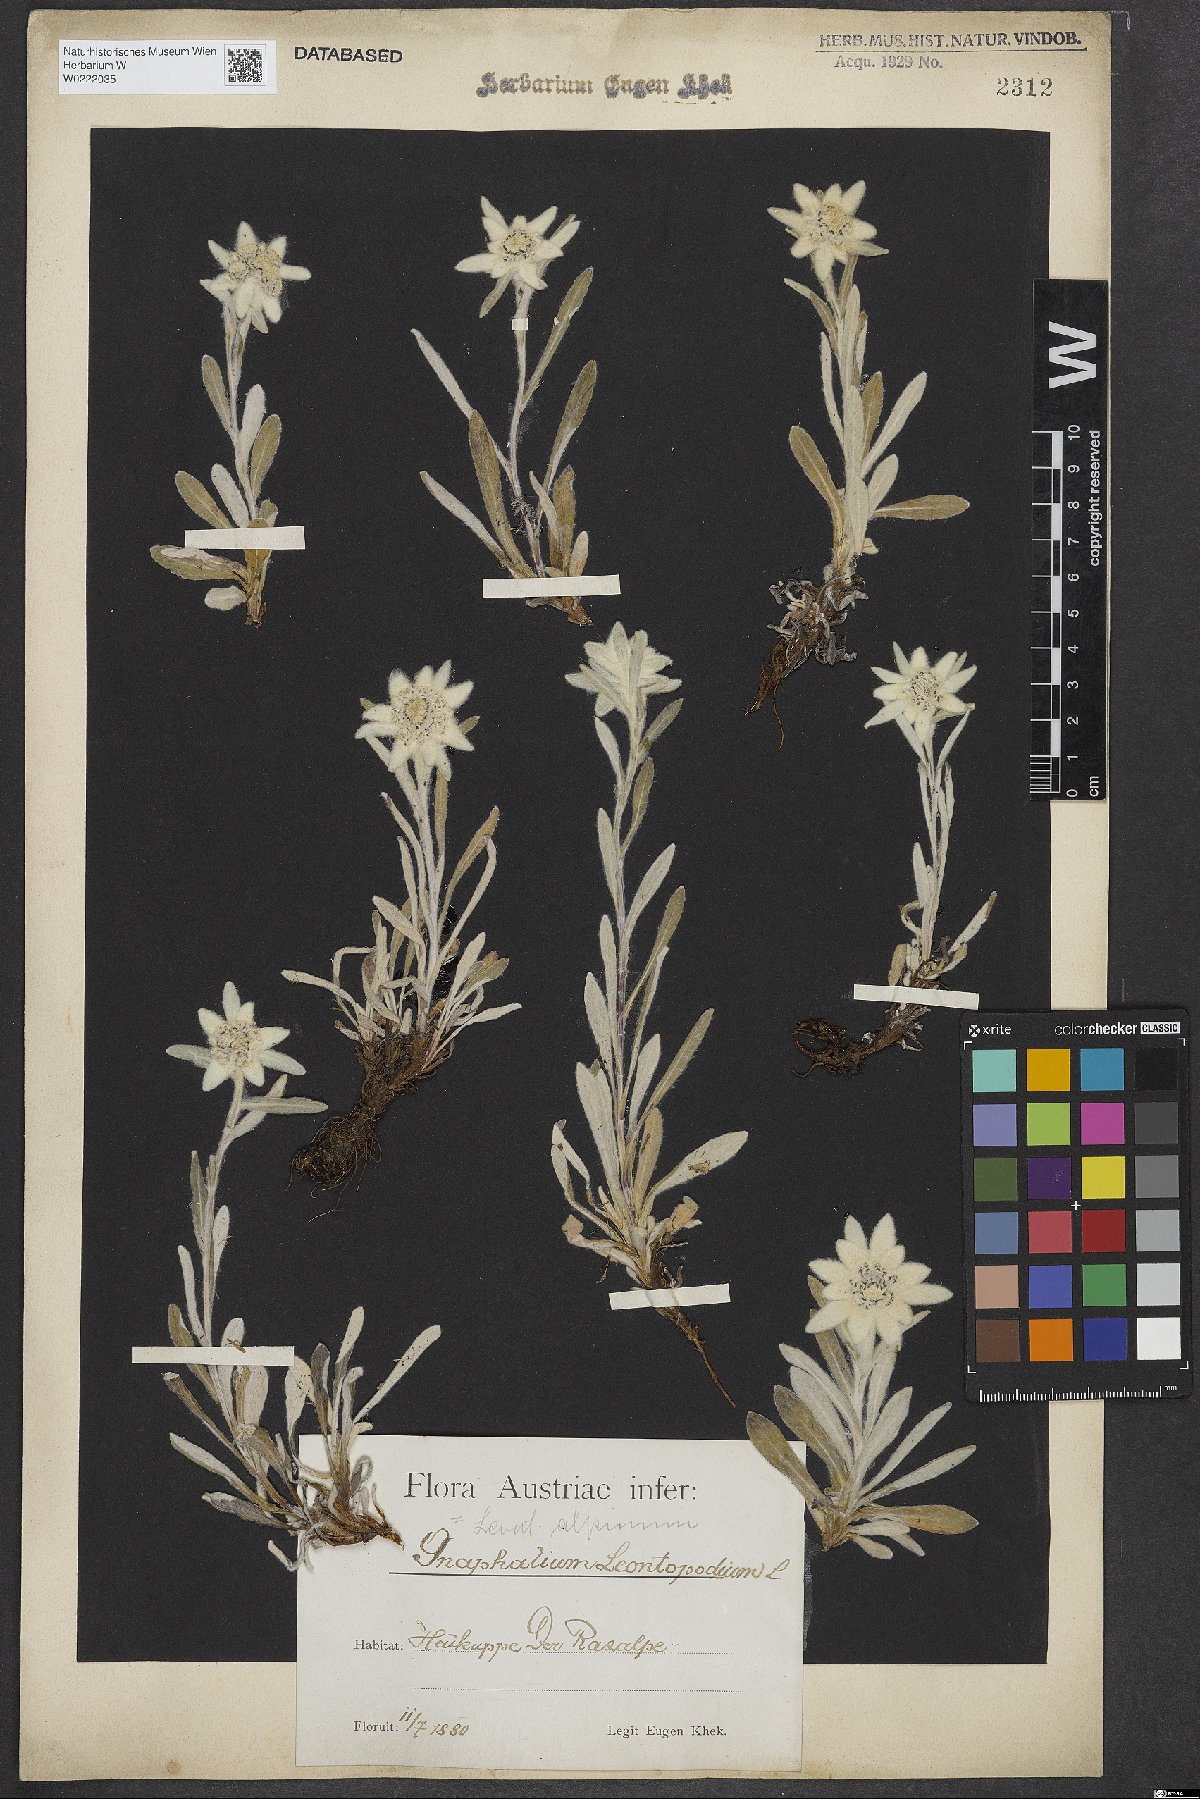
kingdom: Plantae
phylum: Tracheophyta
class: Magnoliopsida
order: Asterales
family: Asteraceae
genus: Leontopodium
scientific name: Leontopodium nivale
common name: Edelweiss
